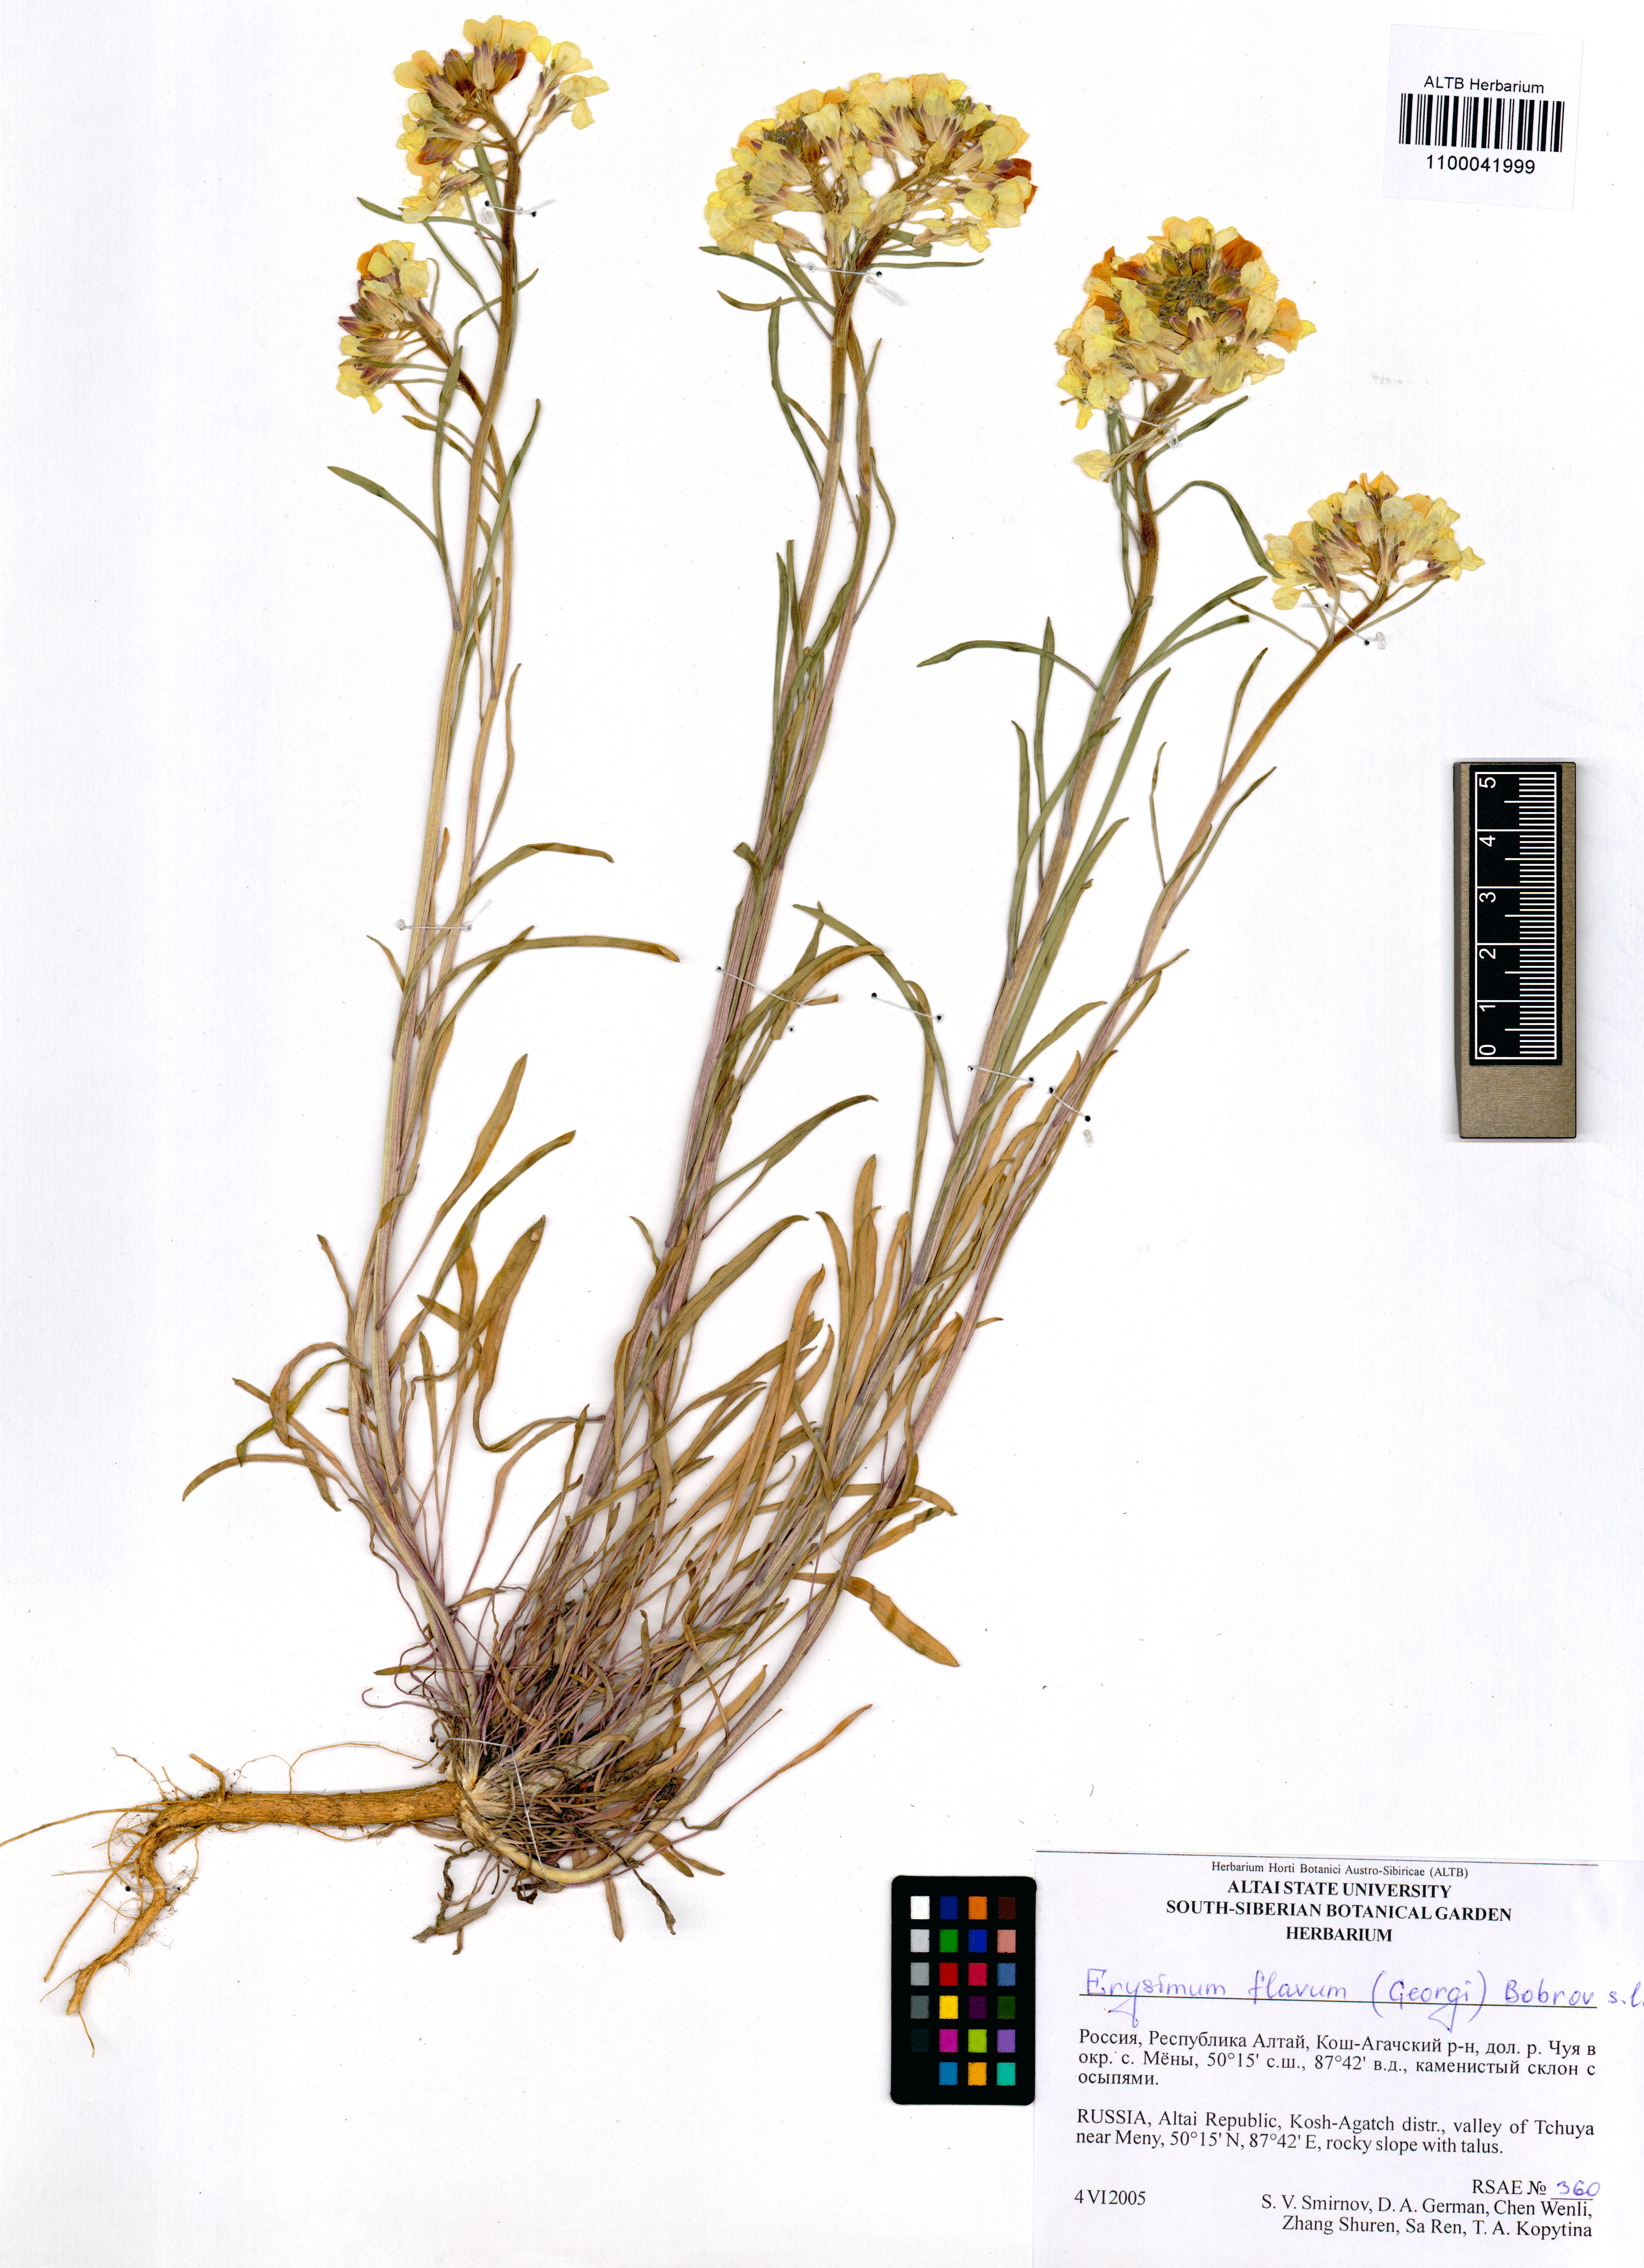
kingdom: Plantae
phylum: Tracheophyta
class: Magnoliopsida
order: Brassicales
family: Brassicaceae
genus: Erysimum
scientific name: Erysimum flavum
